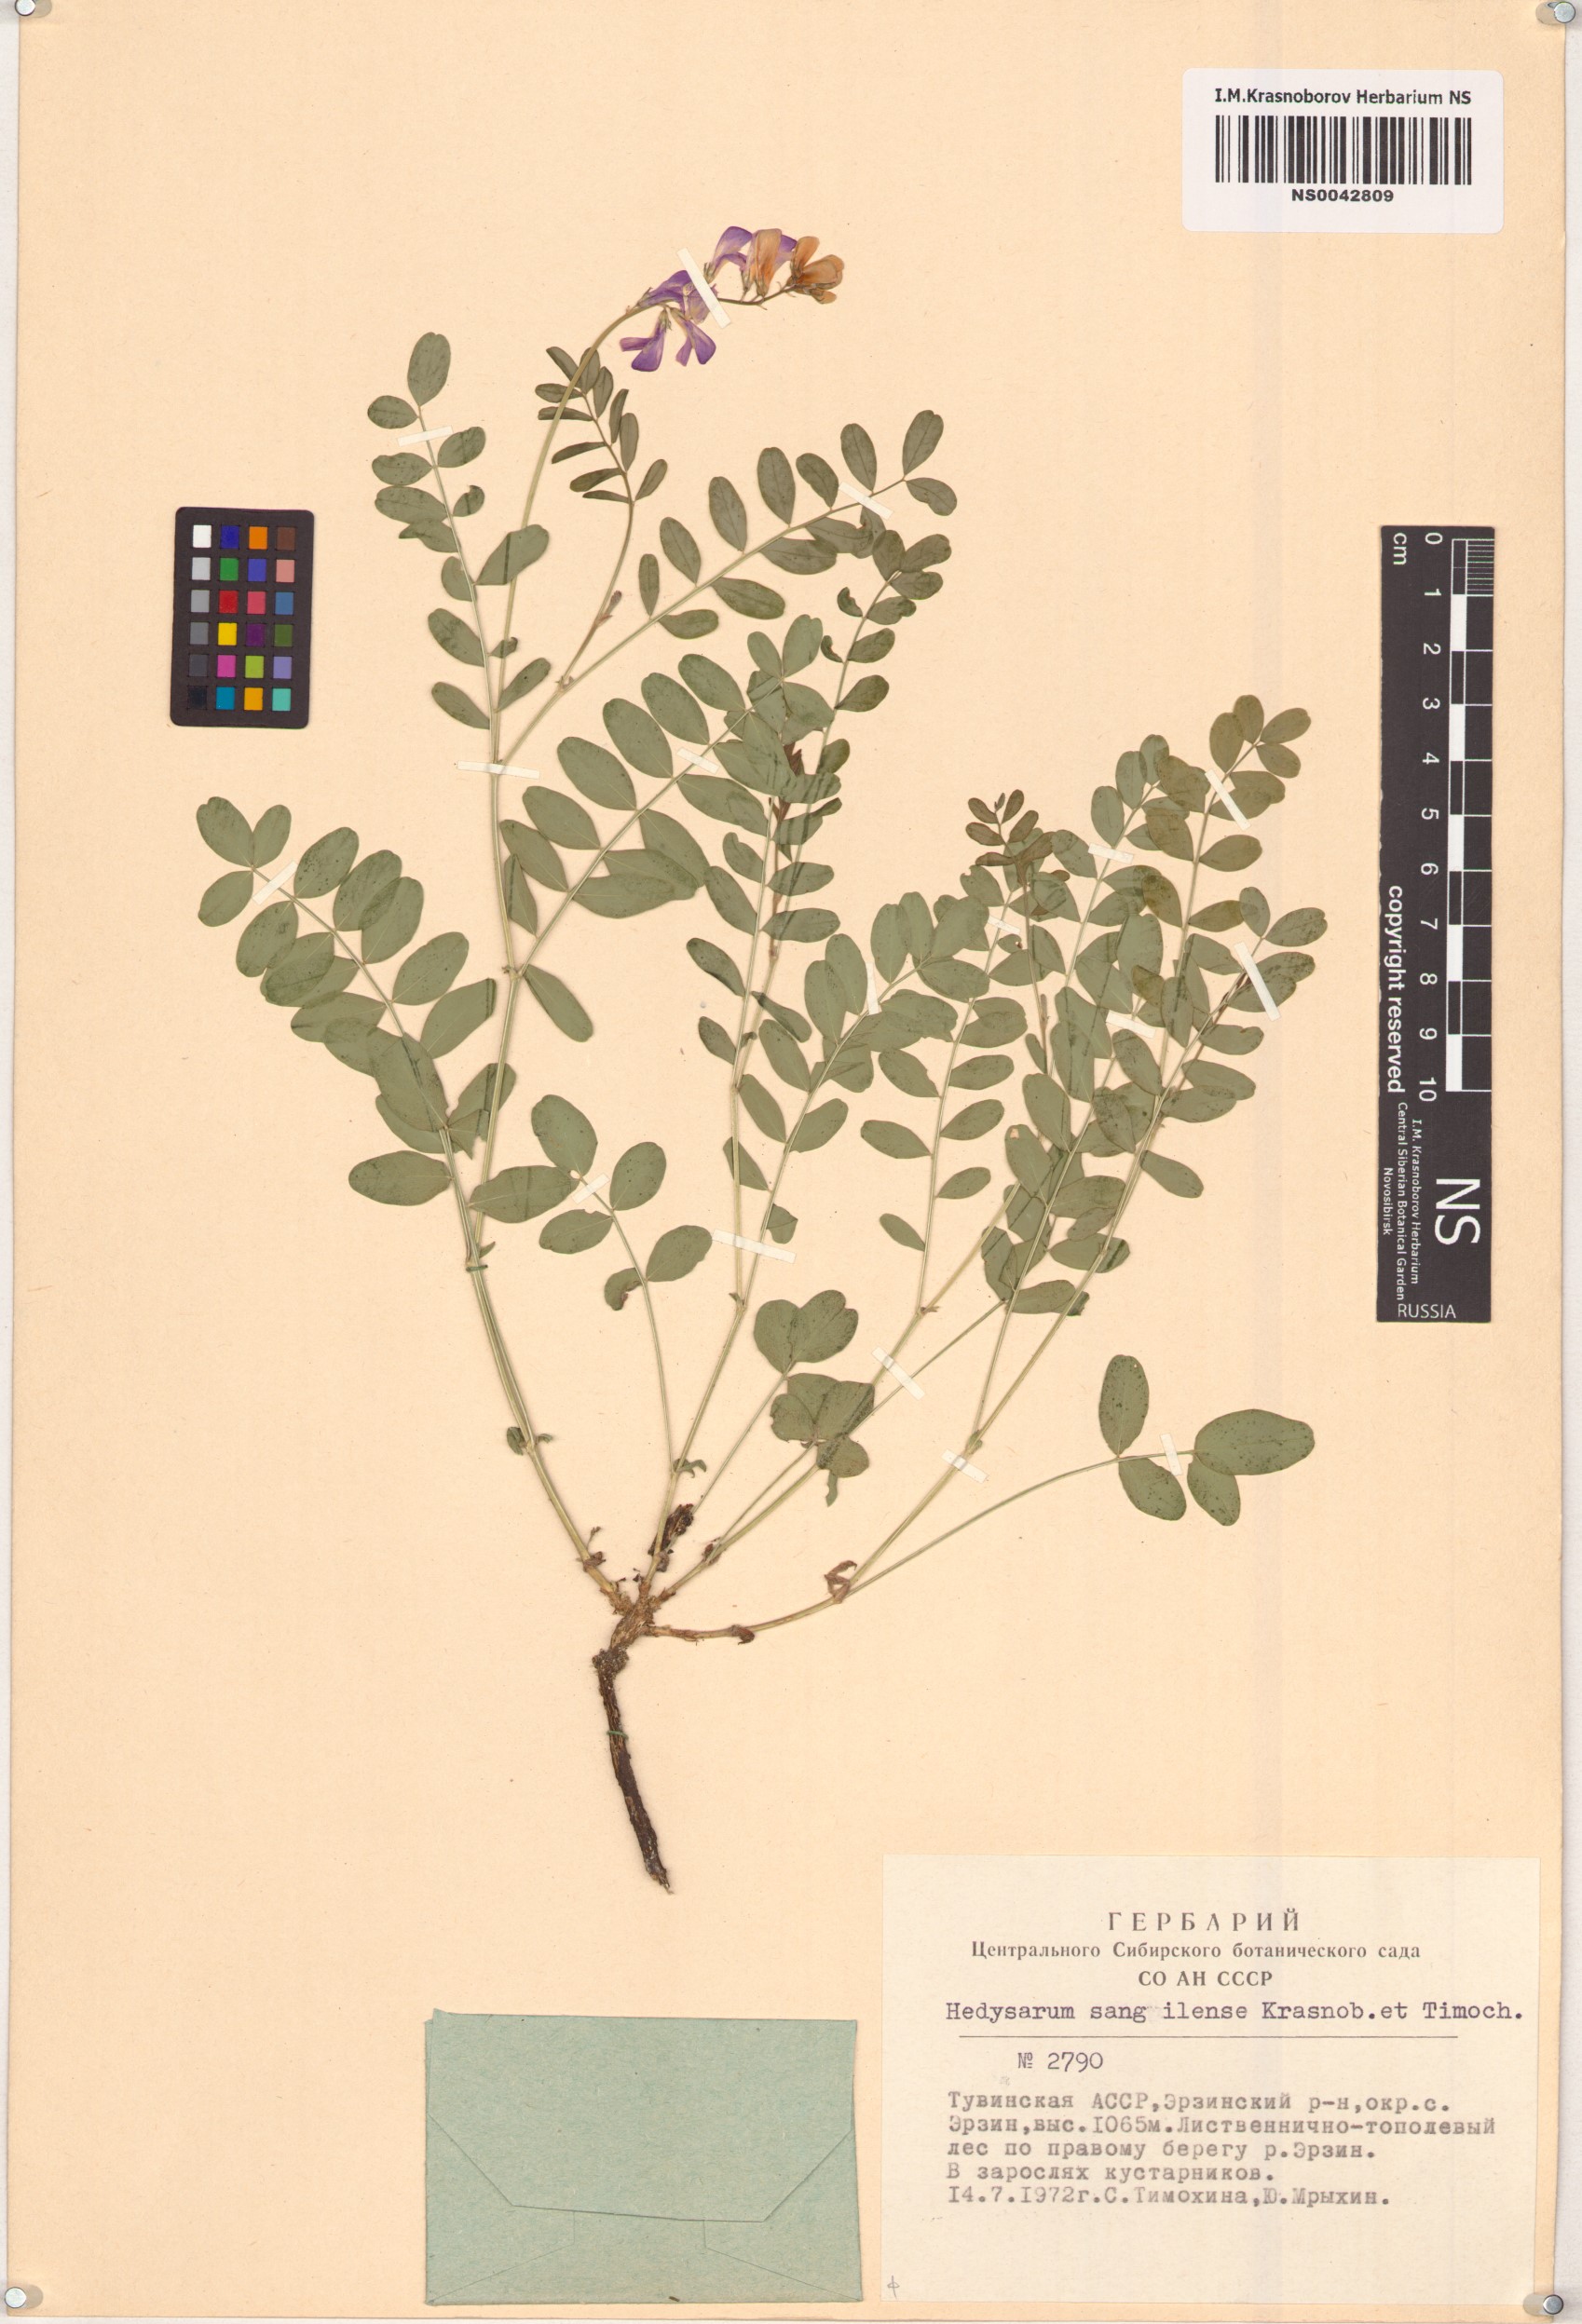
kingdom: Plantae
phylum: Tracheophyta
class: Magnoliopsida
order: Fabales
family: Fabaceae
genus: Hedysarum
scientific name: Hedysarum sangilense
